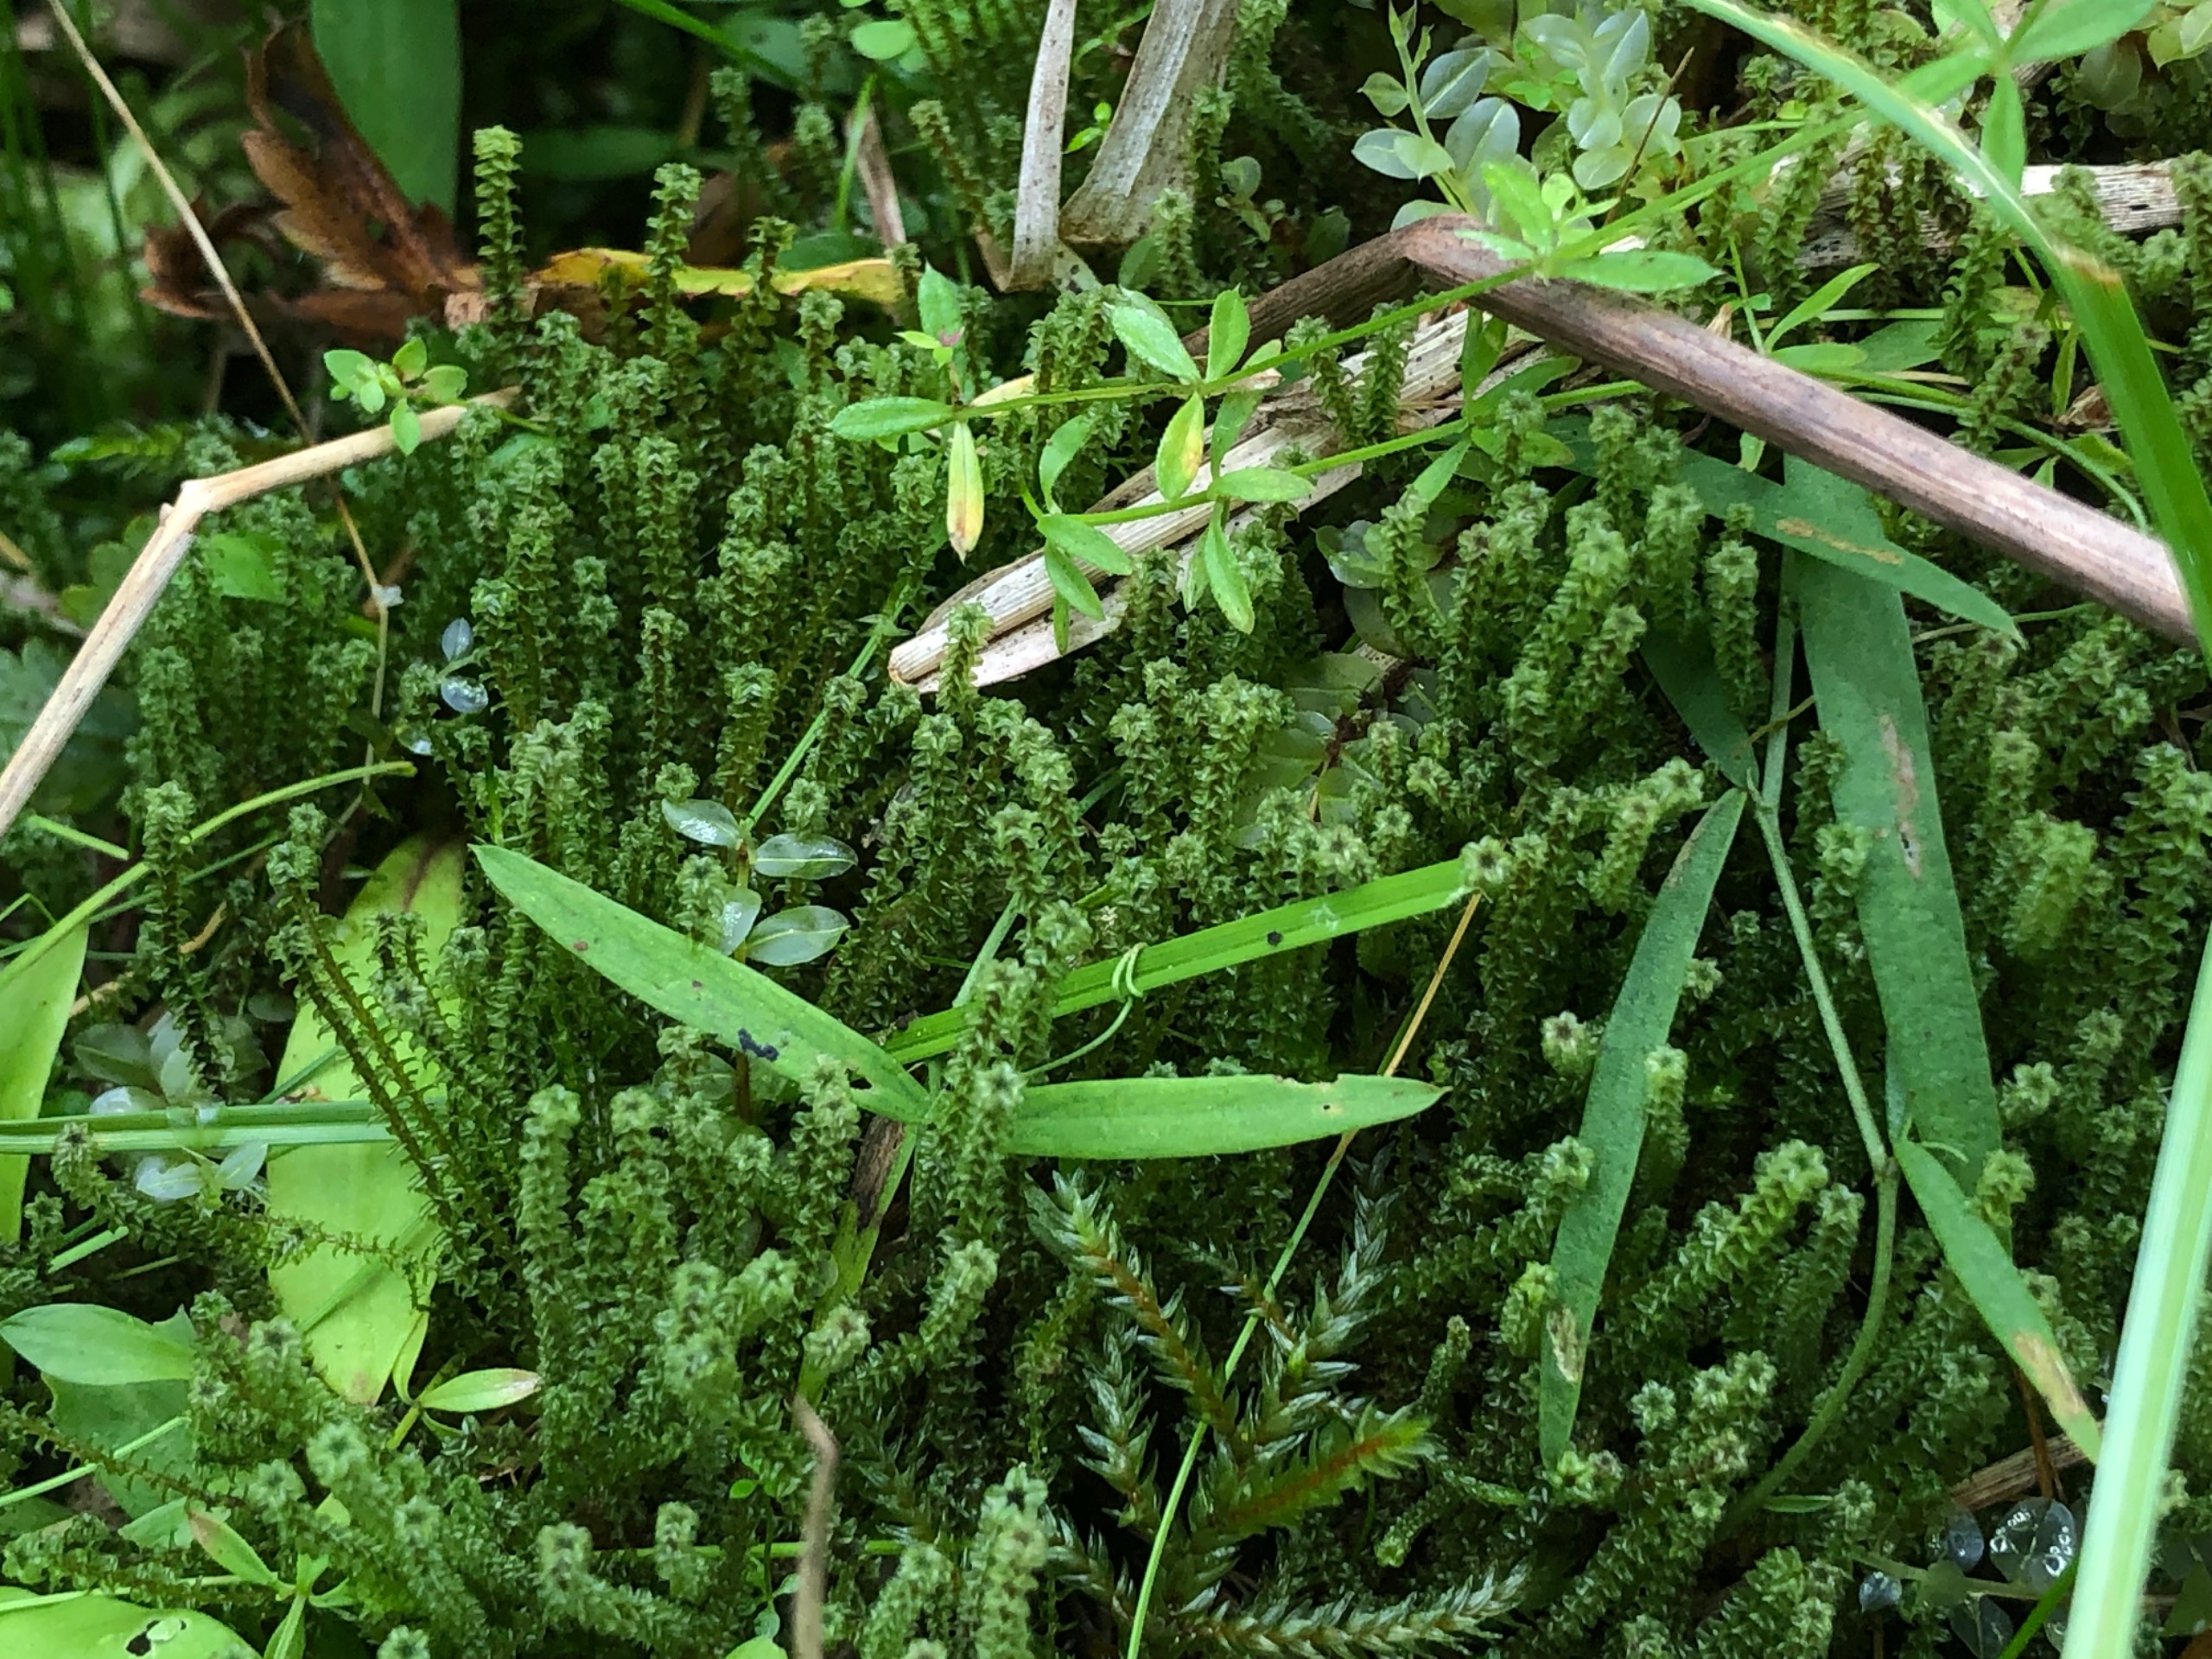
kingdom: Plantae
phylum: Bryophyta
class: Bryopsida
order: Splachnales
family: Meesiaceae
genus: Paludella
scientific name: Paludella squarrosa
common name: Almindelig piberensermos
